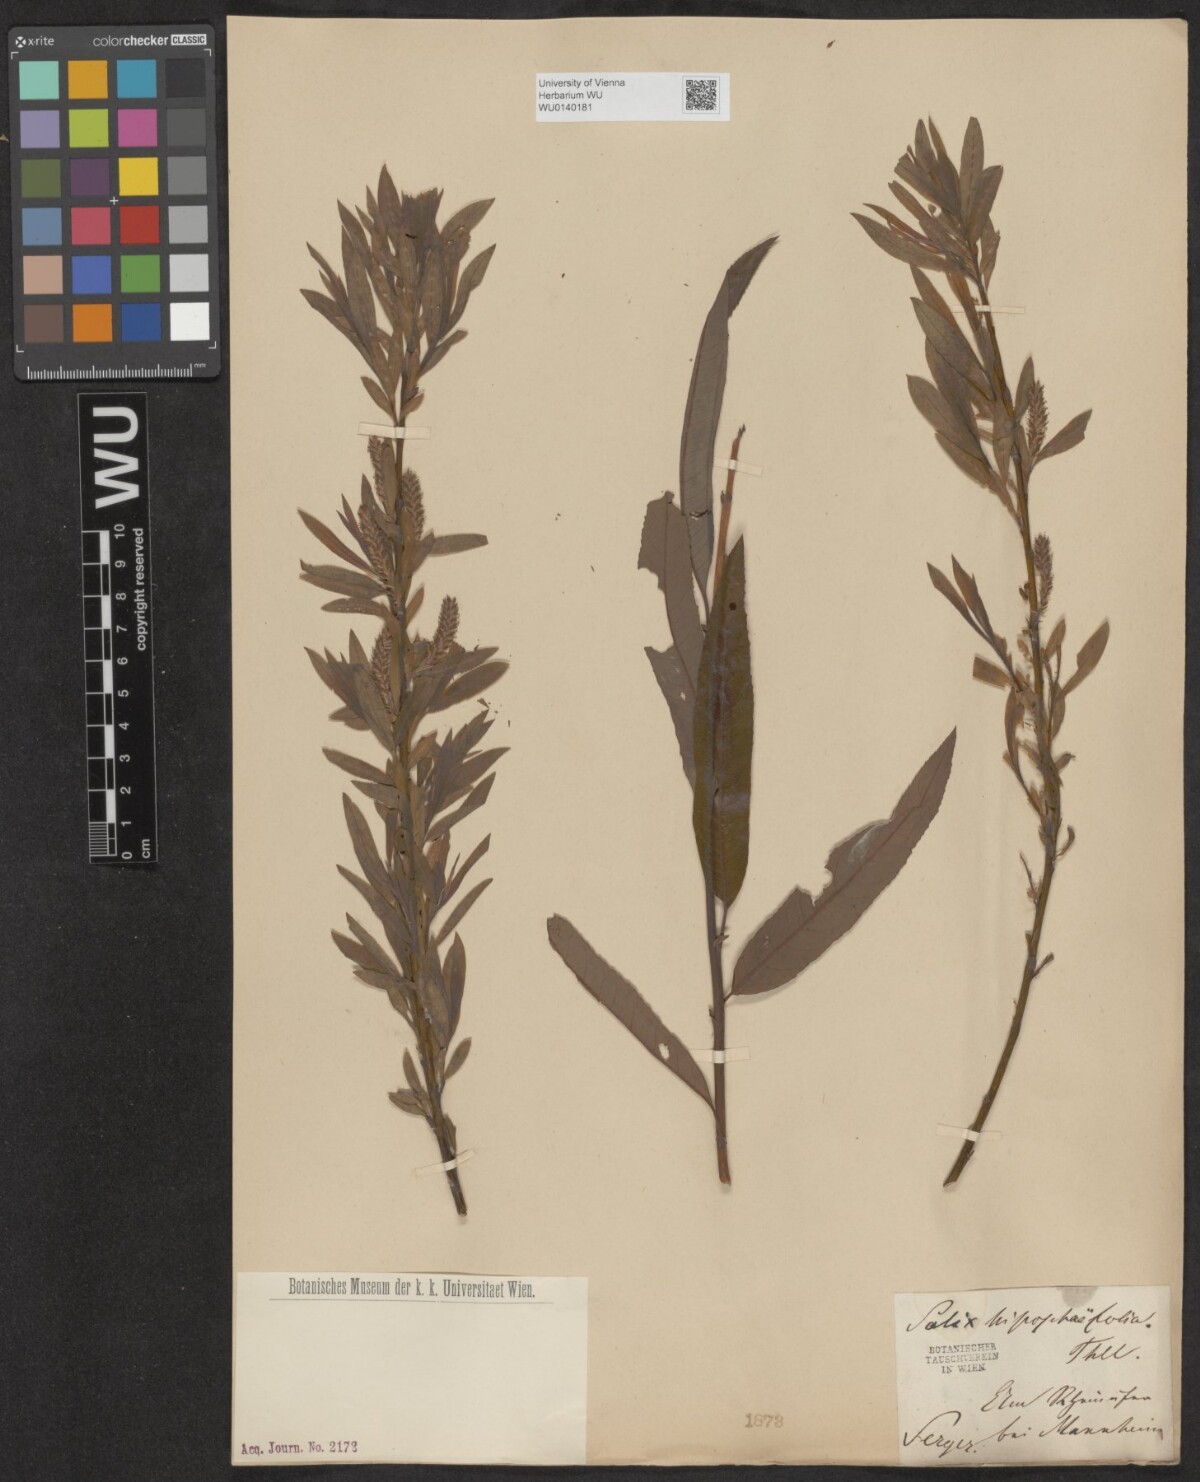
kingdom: Plantae
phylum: Tracheophyta
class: Magnoliopsida
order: Malpighiales
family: Salicaceae
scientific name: Salicaceae
